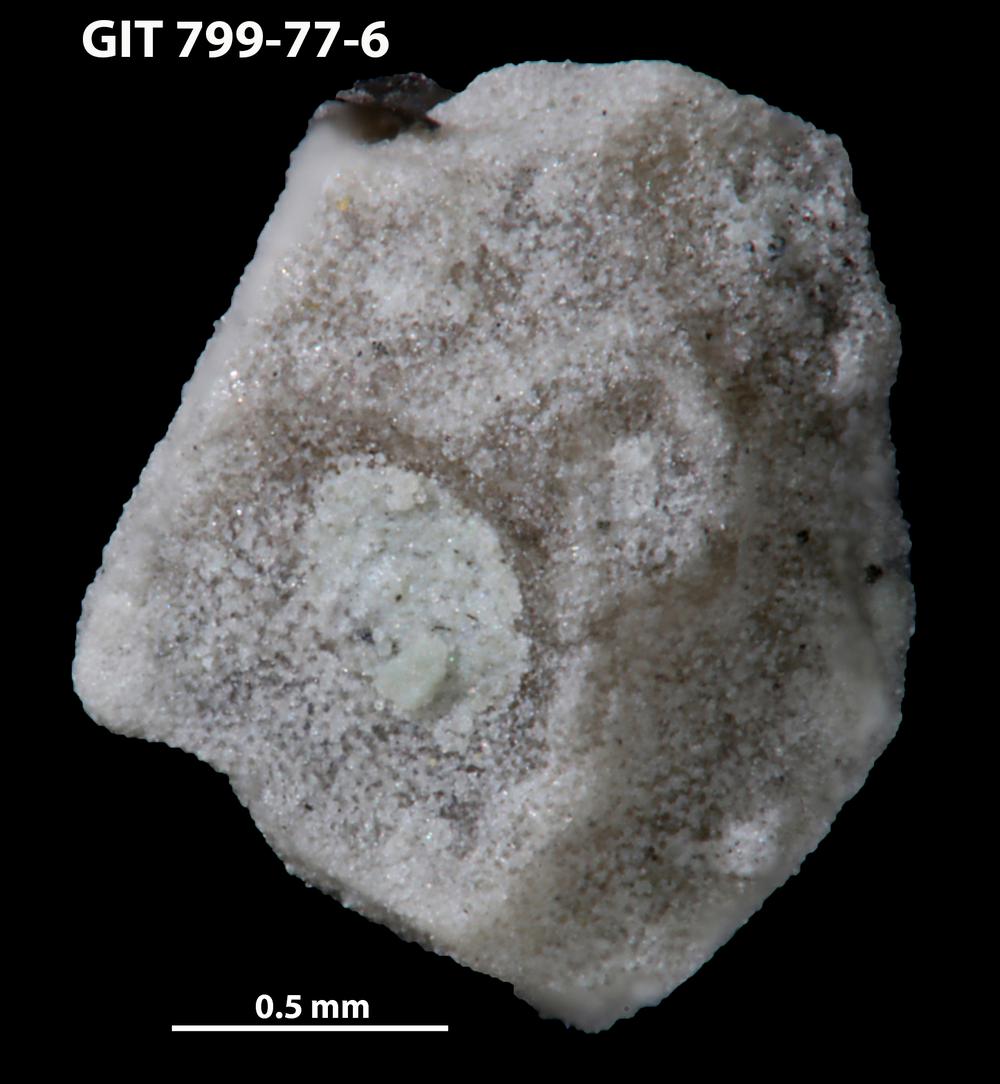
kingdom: Animalia
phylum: Echinodermata
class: Echinoidea
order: Bothriocidaroida
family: Bothriocidaridae
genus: Neobothriocidaris
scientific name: Neobothriocidaris
